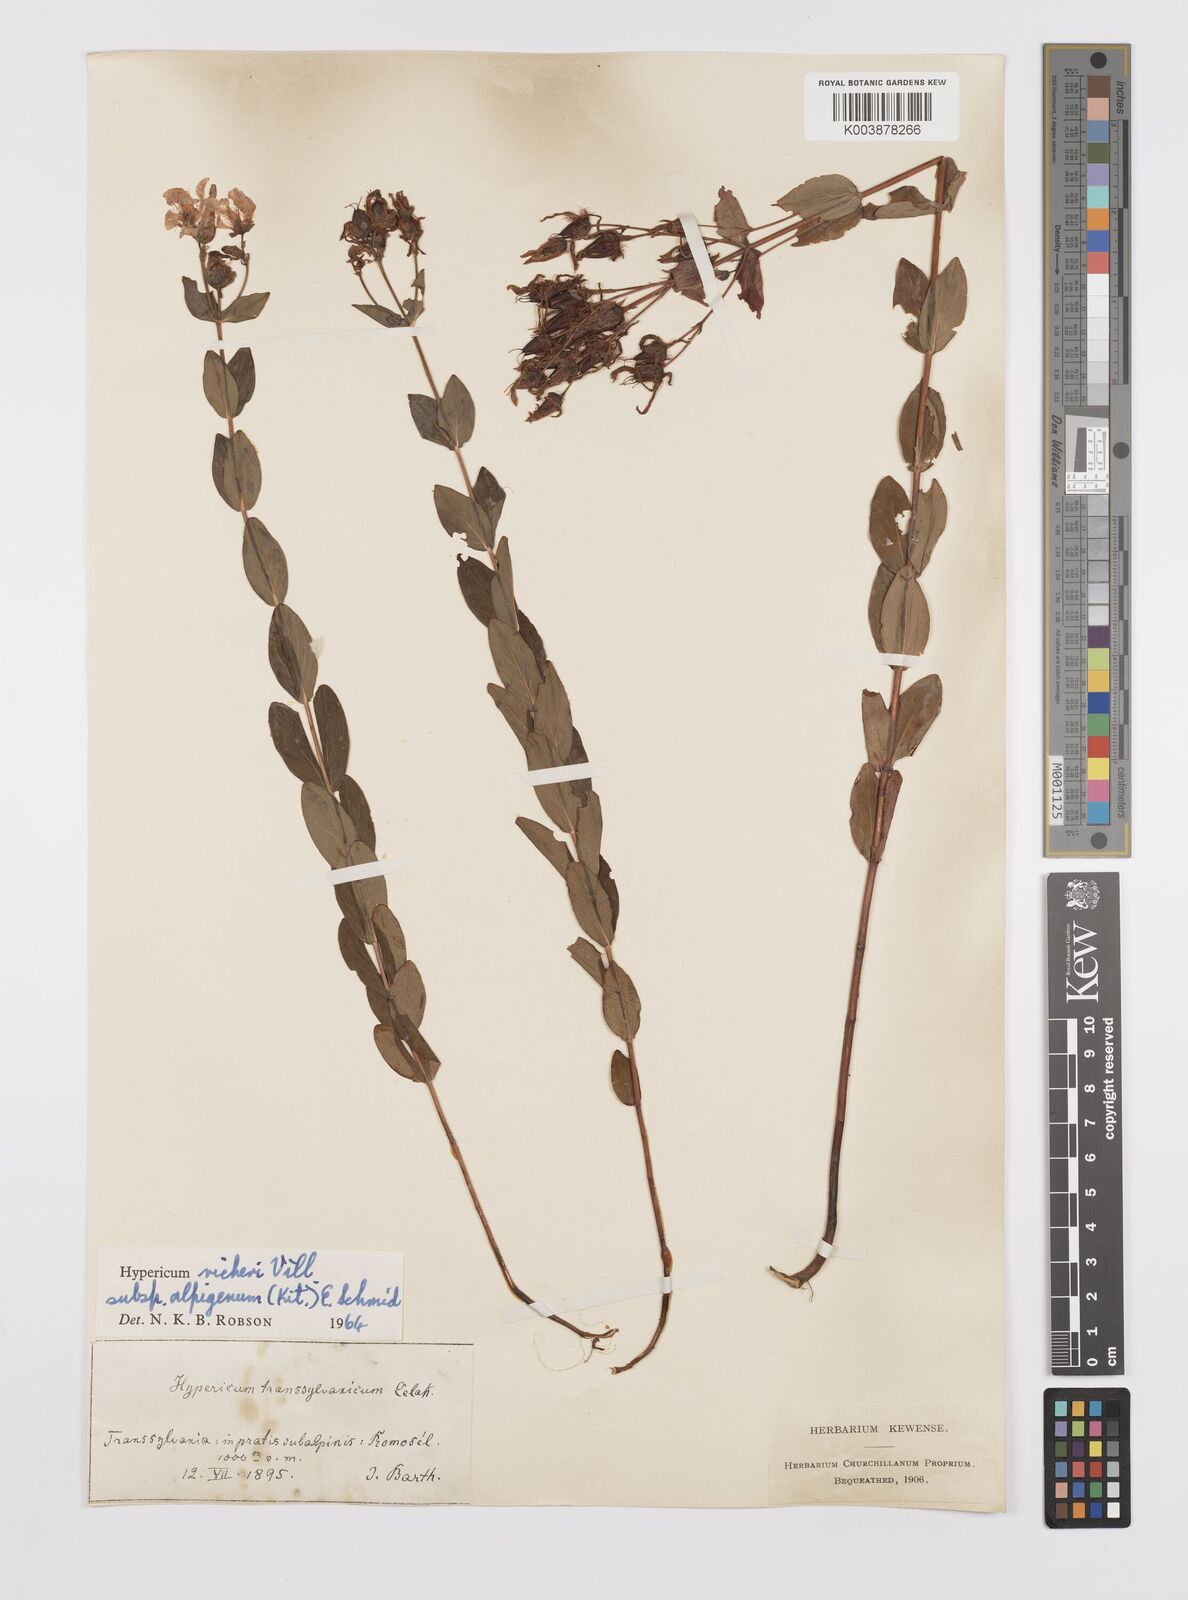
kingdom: Plantae
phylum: Tracheophyta
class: Magnoliopsida
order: Malpighiales
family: Hypericaceae
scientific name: Hypericaceae
